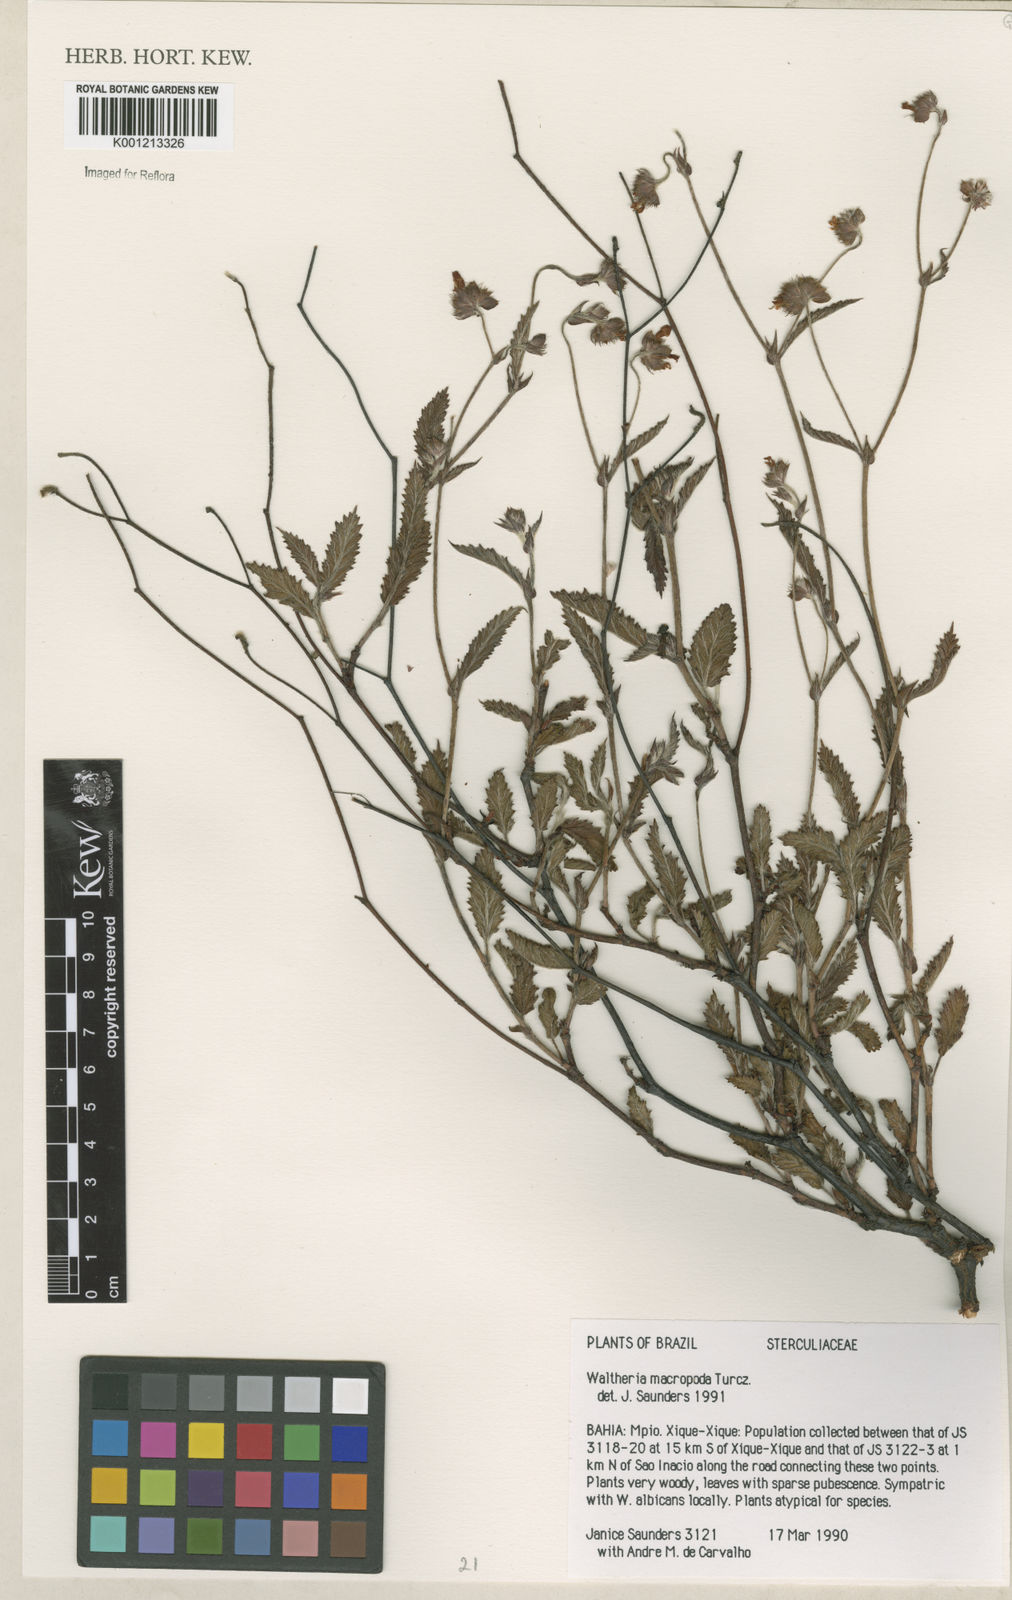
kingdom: Plantae
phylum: Tracheophyta
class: Magnoliopsida
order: Malvales
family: Malvaceae
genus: Waltheria
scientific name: Waltheria bracteosa
